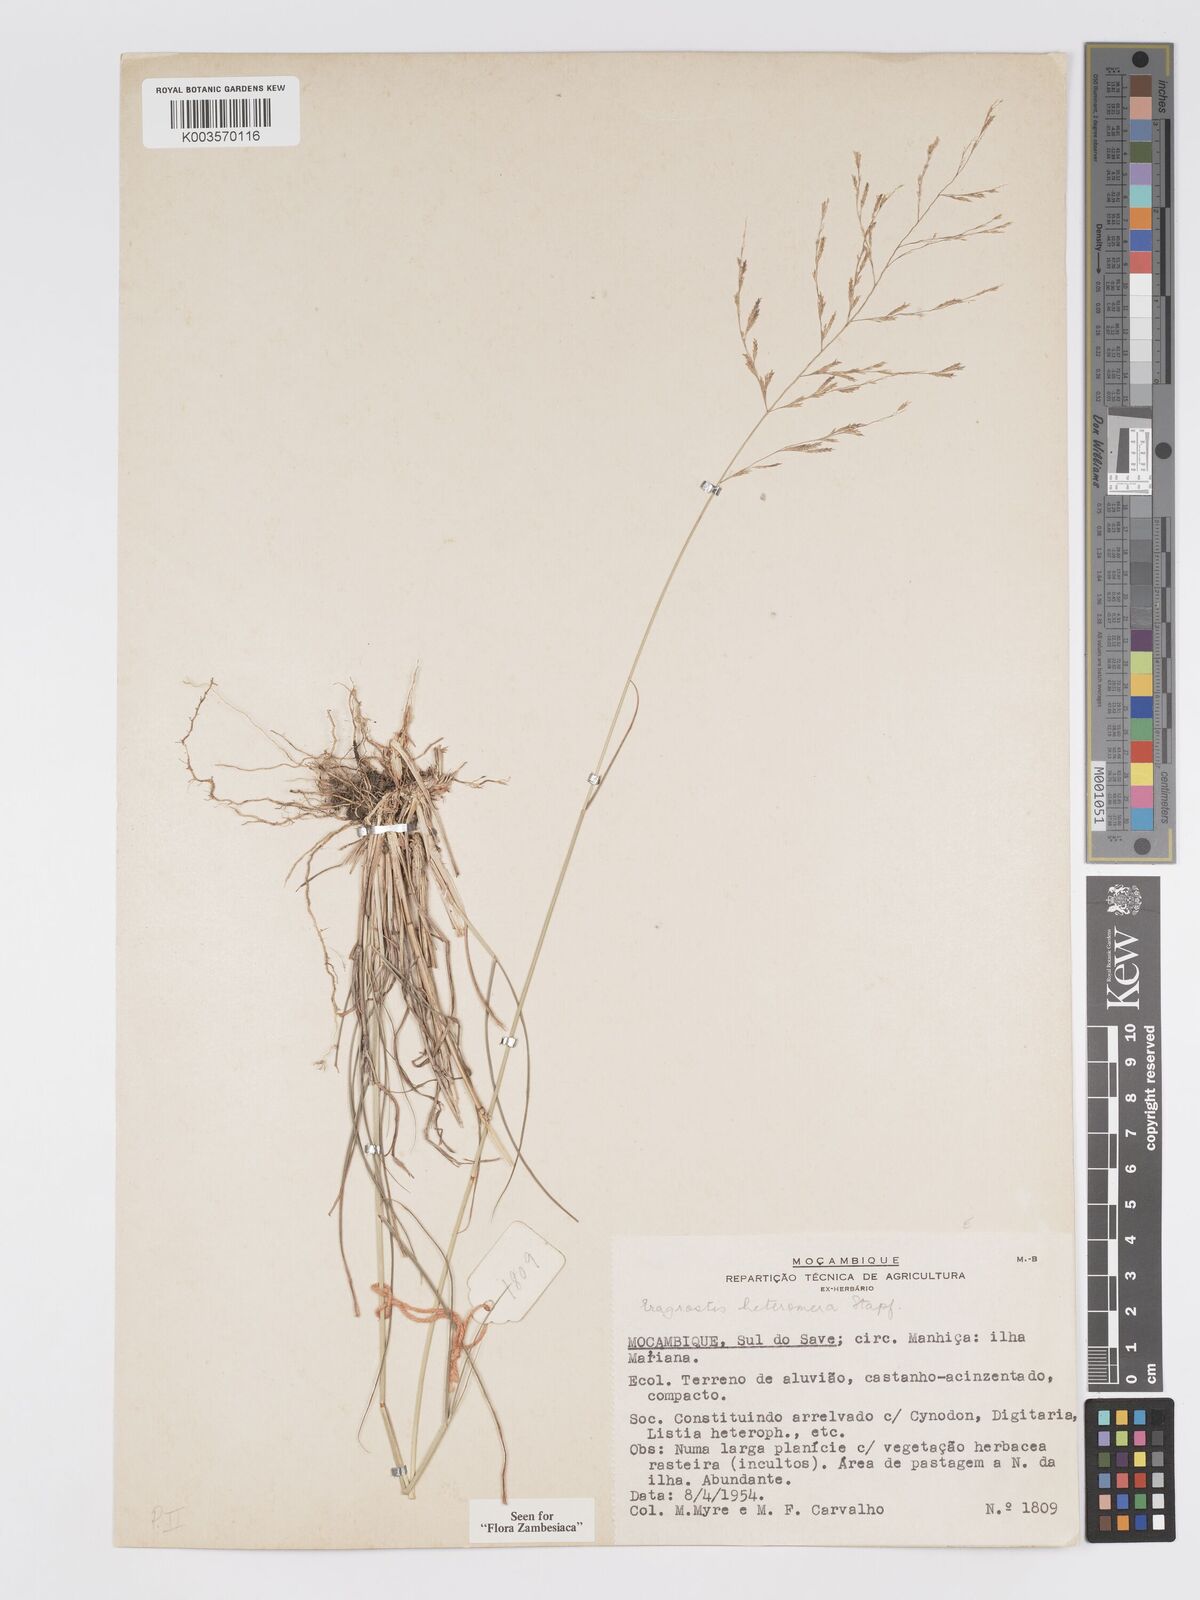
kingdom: Plantae
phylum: Tracheophyta
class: Liliopsida
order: Poales
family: Poaceae
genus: Eragrostis
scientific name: Eragrostis heteromera
